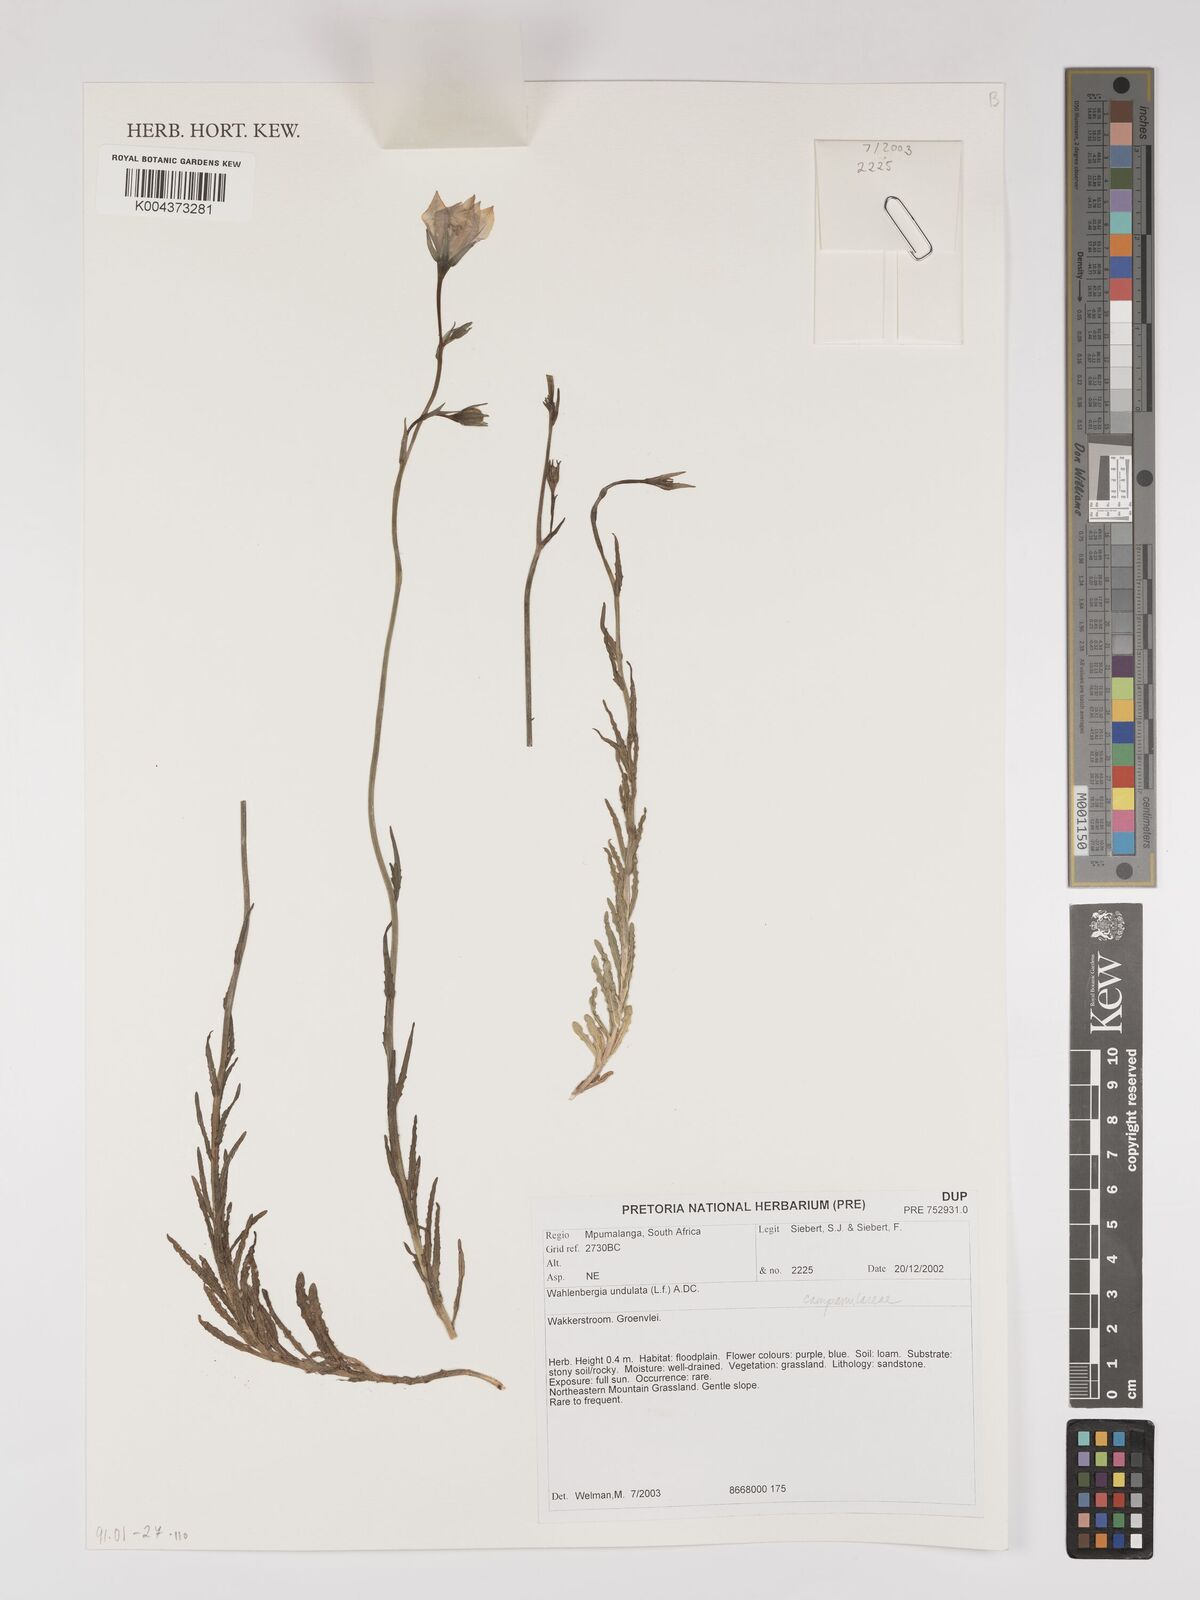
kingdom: Plantae
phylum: Tracheophyta
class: Magnoliopsida
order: Asterales
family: Campanulaceae
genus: Wahlenbergia
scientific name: Wahlenbergia undulata
